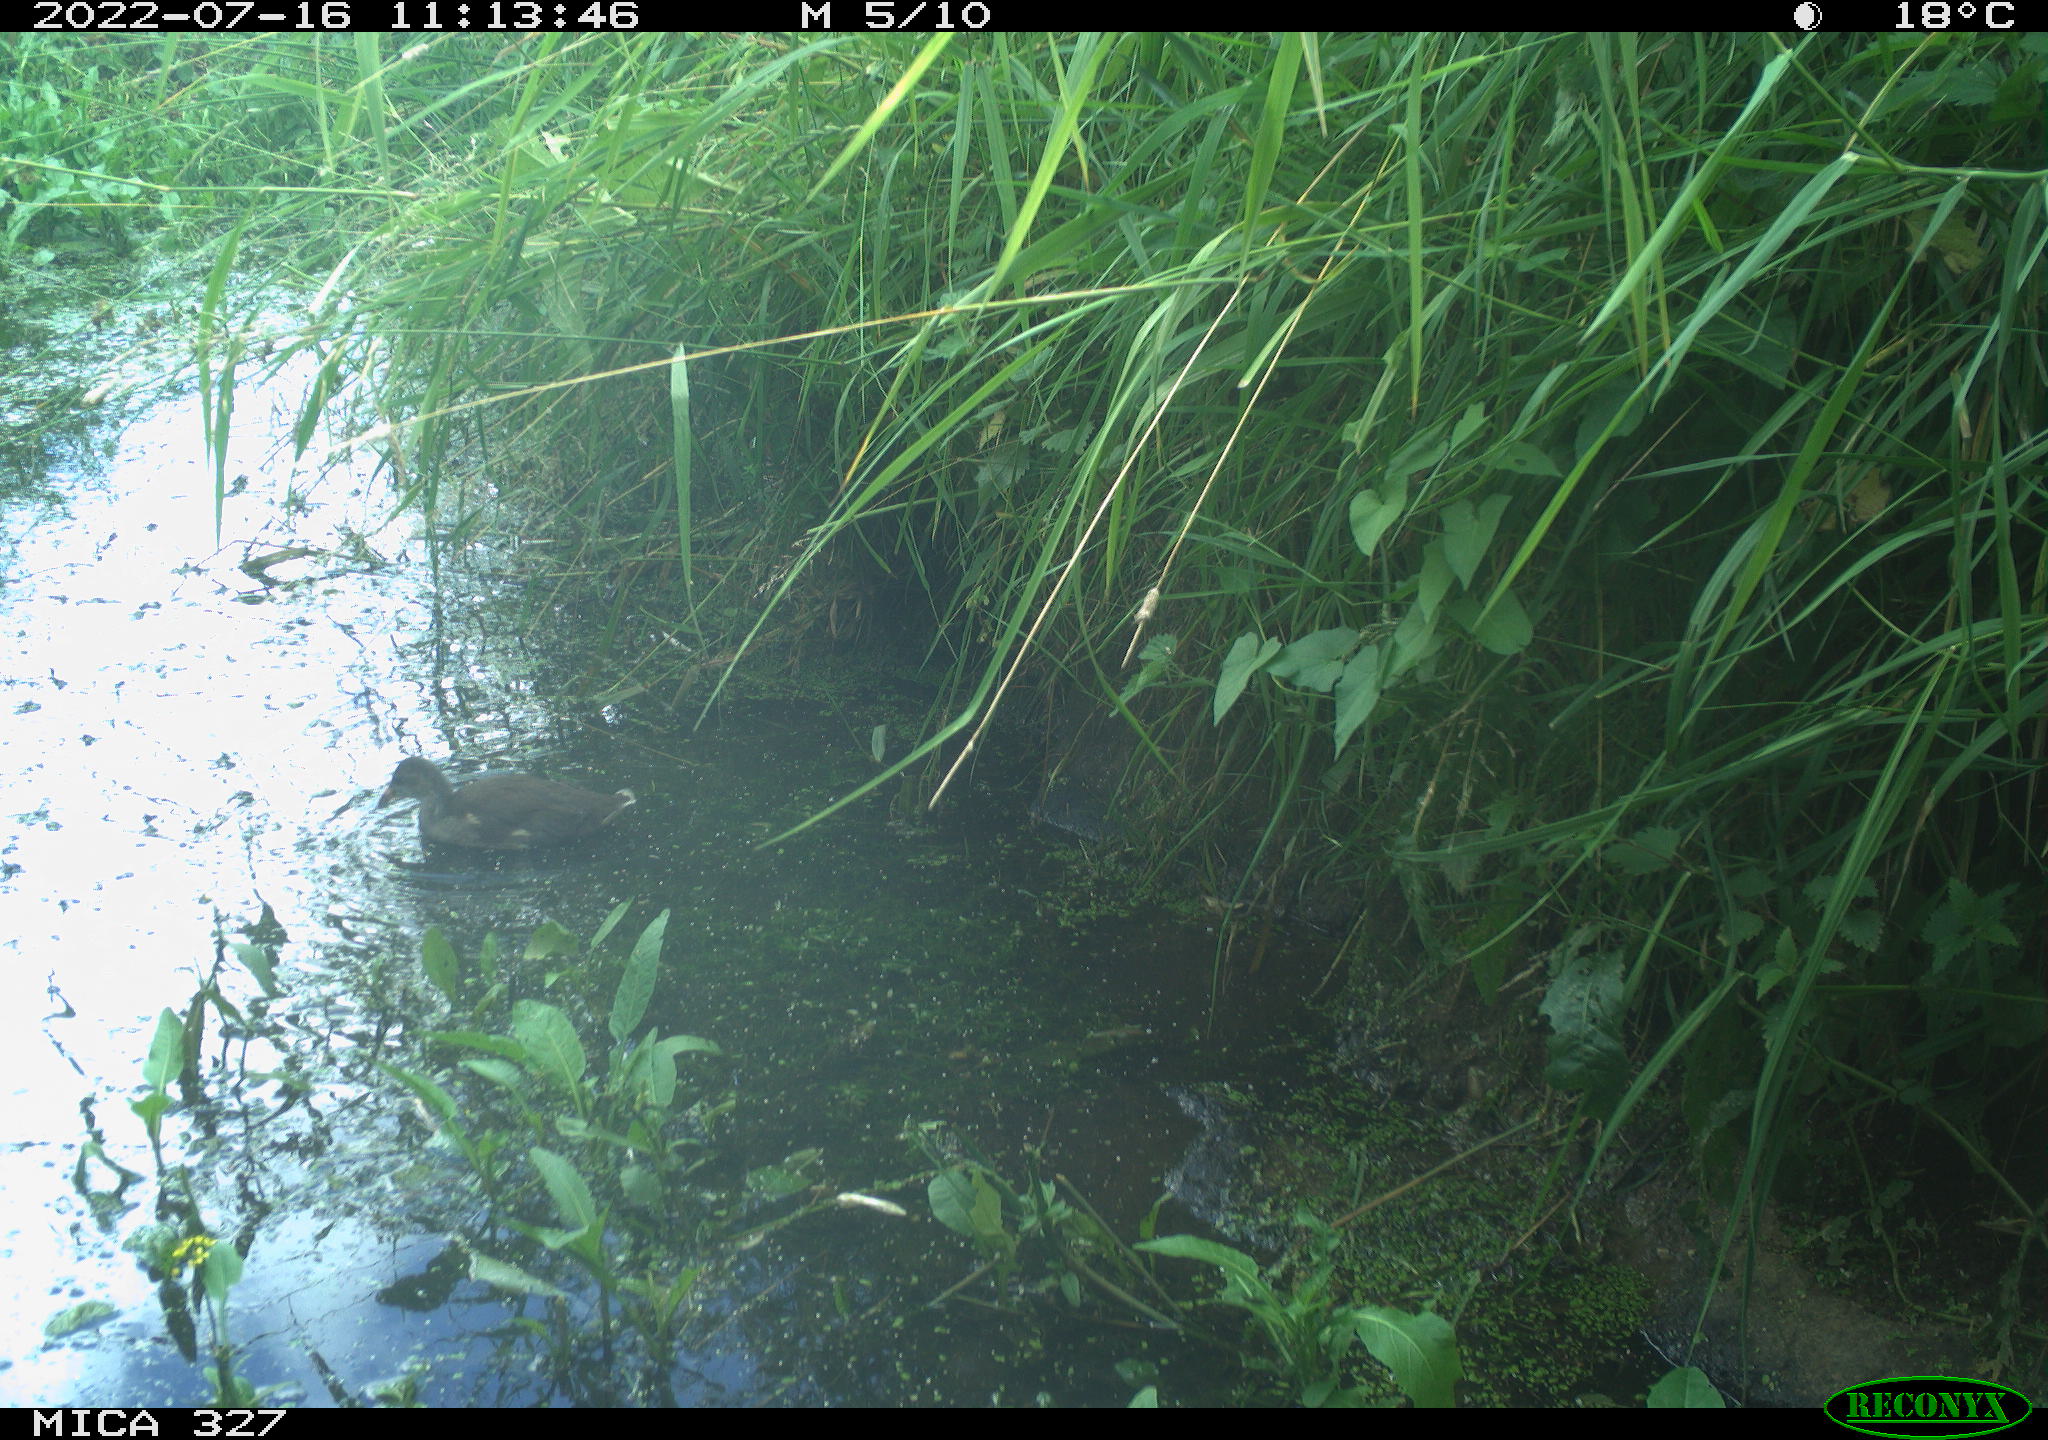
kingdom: Animalia
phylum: Chordata
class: Aves
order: Gruiformes
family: Rallidae
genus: Gallinula
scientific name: Gallinula chloropus
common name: Common moorhen
